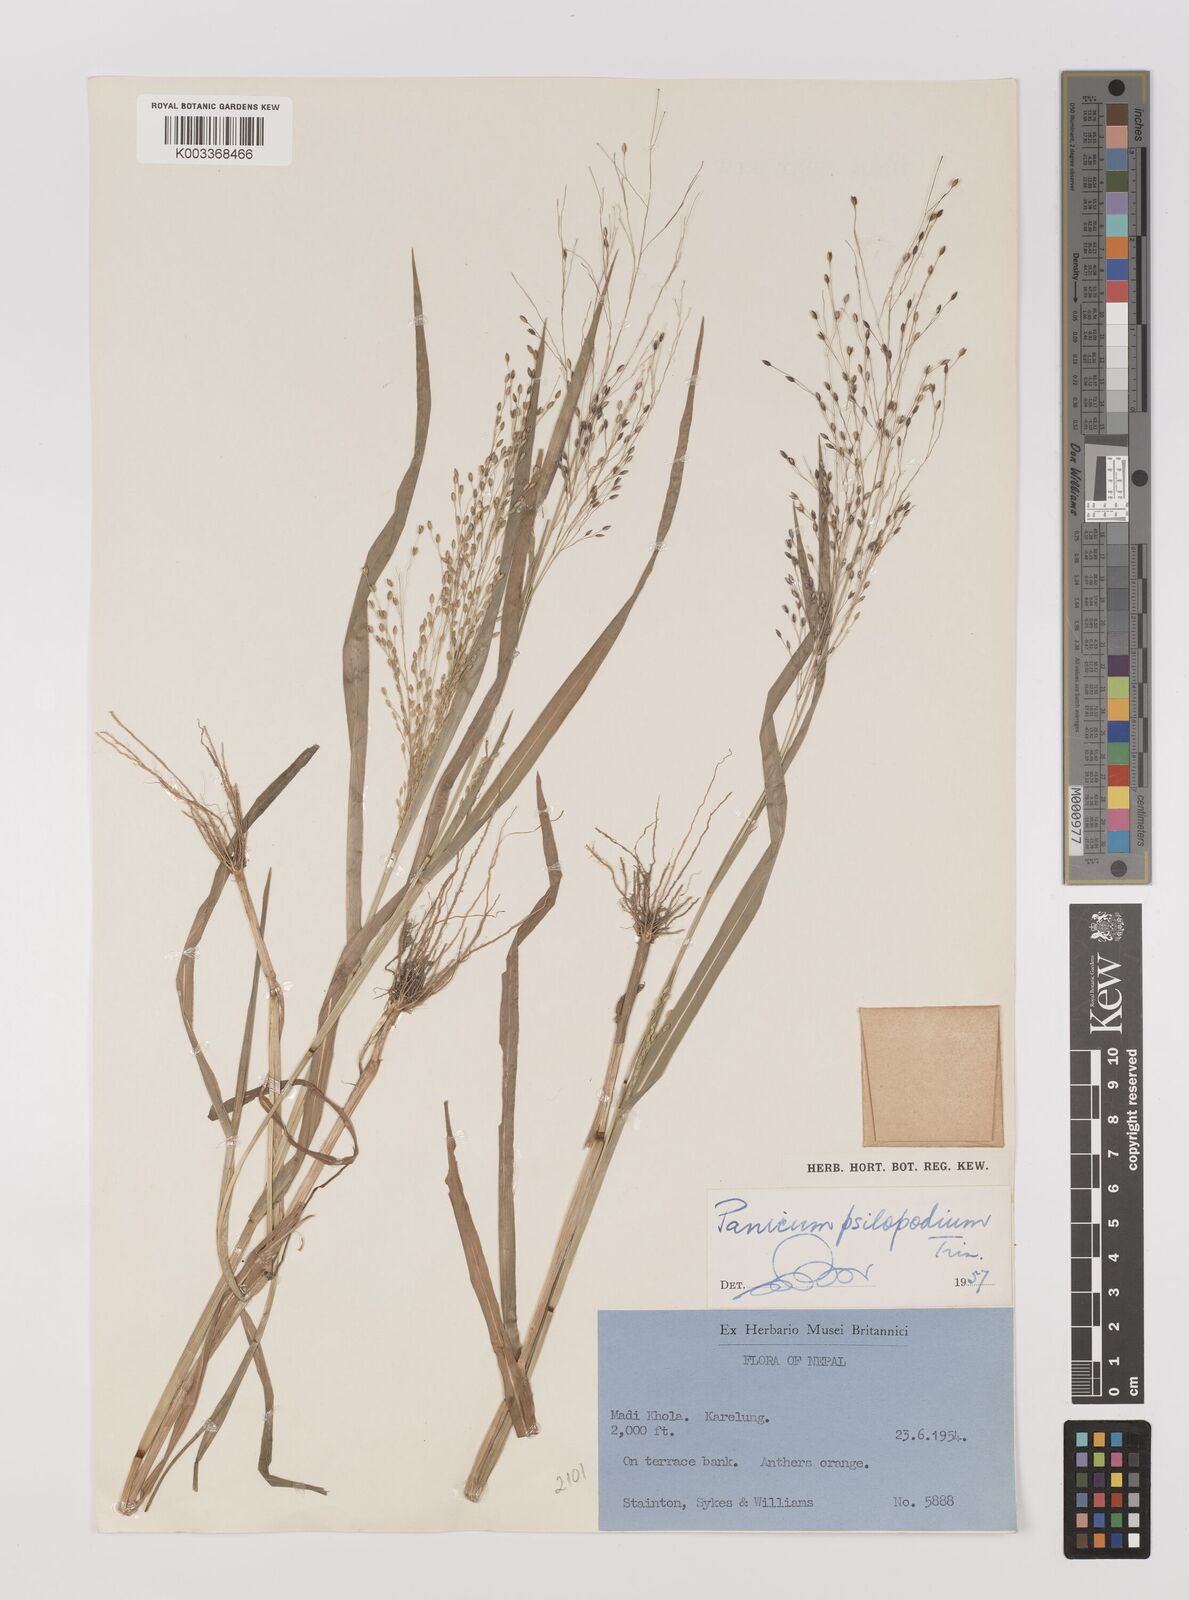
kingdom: Plantae
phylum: Tracheophyta
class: Liliopsida
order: Poales
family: Poaceae
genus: Panicum
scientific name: Panicum sumatrense
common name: Little millet
